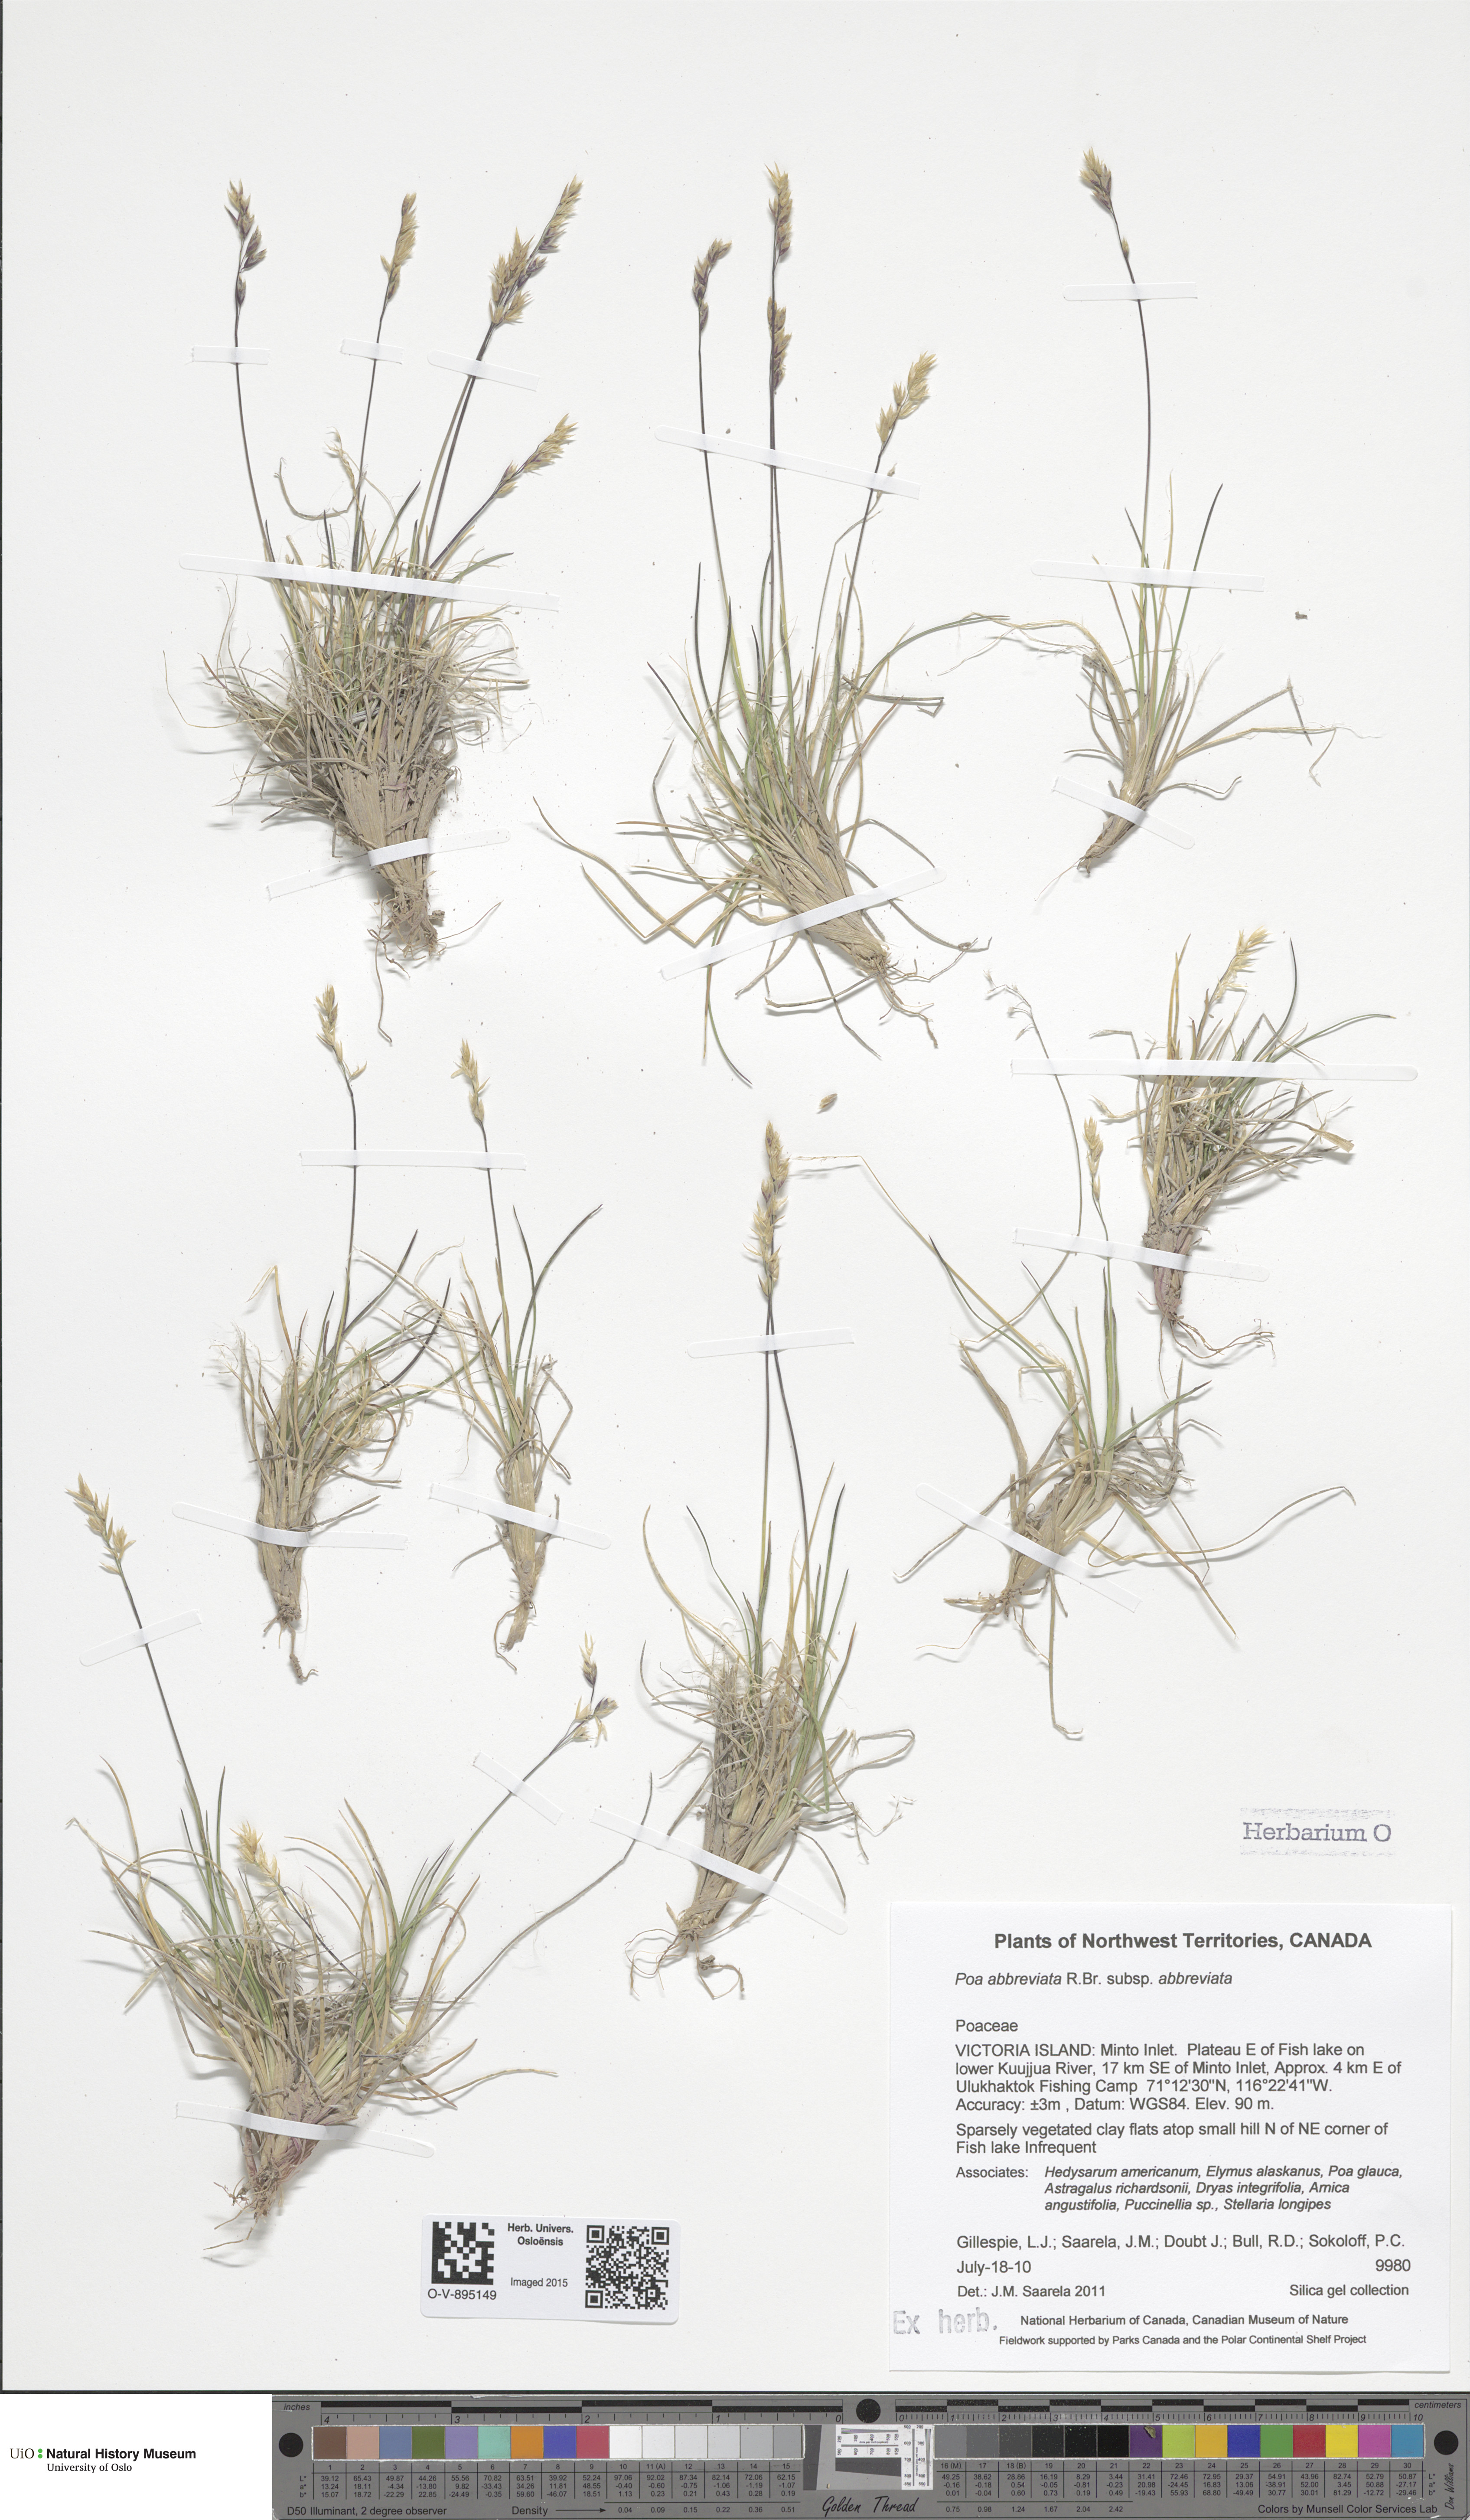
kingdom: Plantae
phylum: Tracheophyta
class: Liliopsida
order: Poales
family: Poaceae
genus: Poa
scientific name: Poa abbreviata
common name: Abbreviated bluegrass
